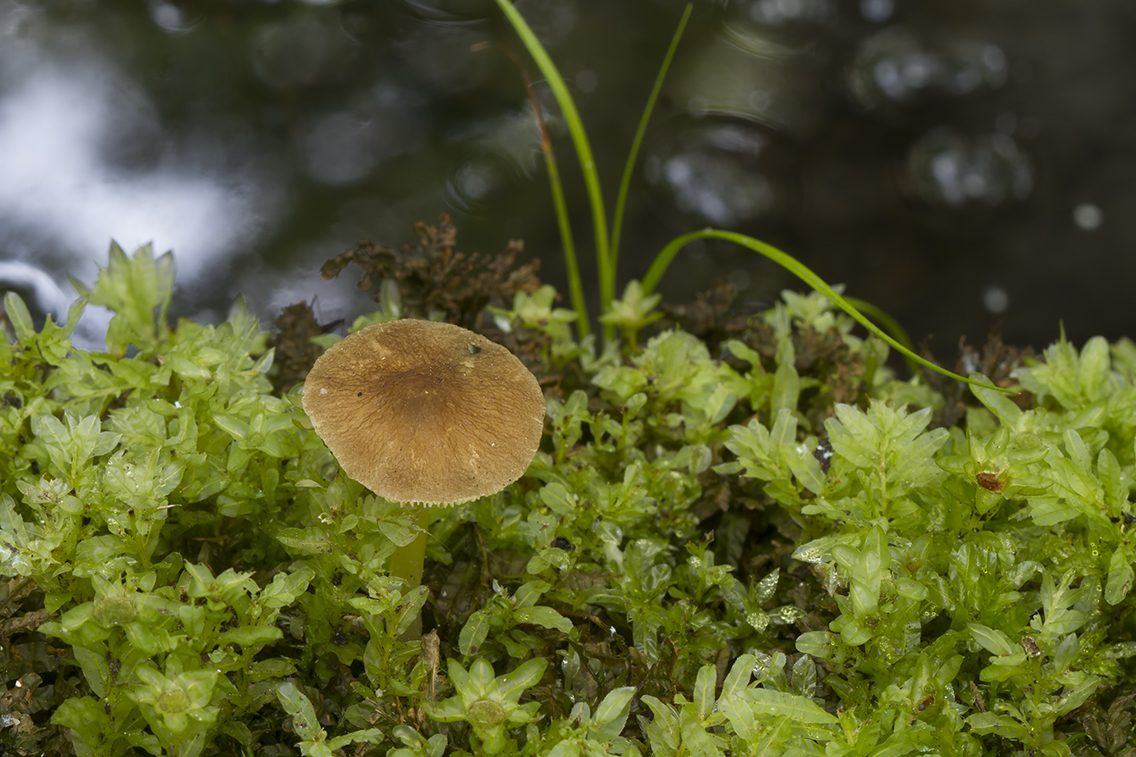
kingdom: Fungi
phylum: Basidiomycota
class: Agaricomycetes
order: Agaricales
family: Pluteaceae
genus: Pluteus
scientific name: Pluteus romellii
